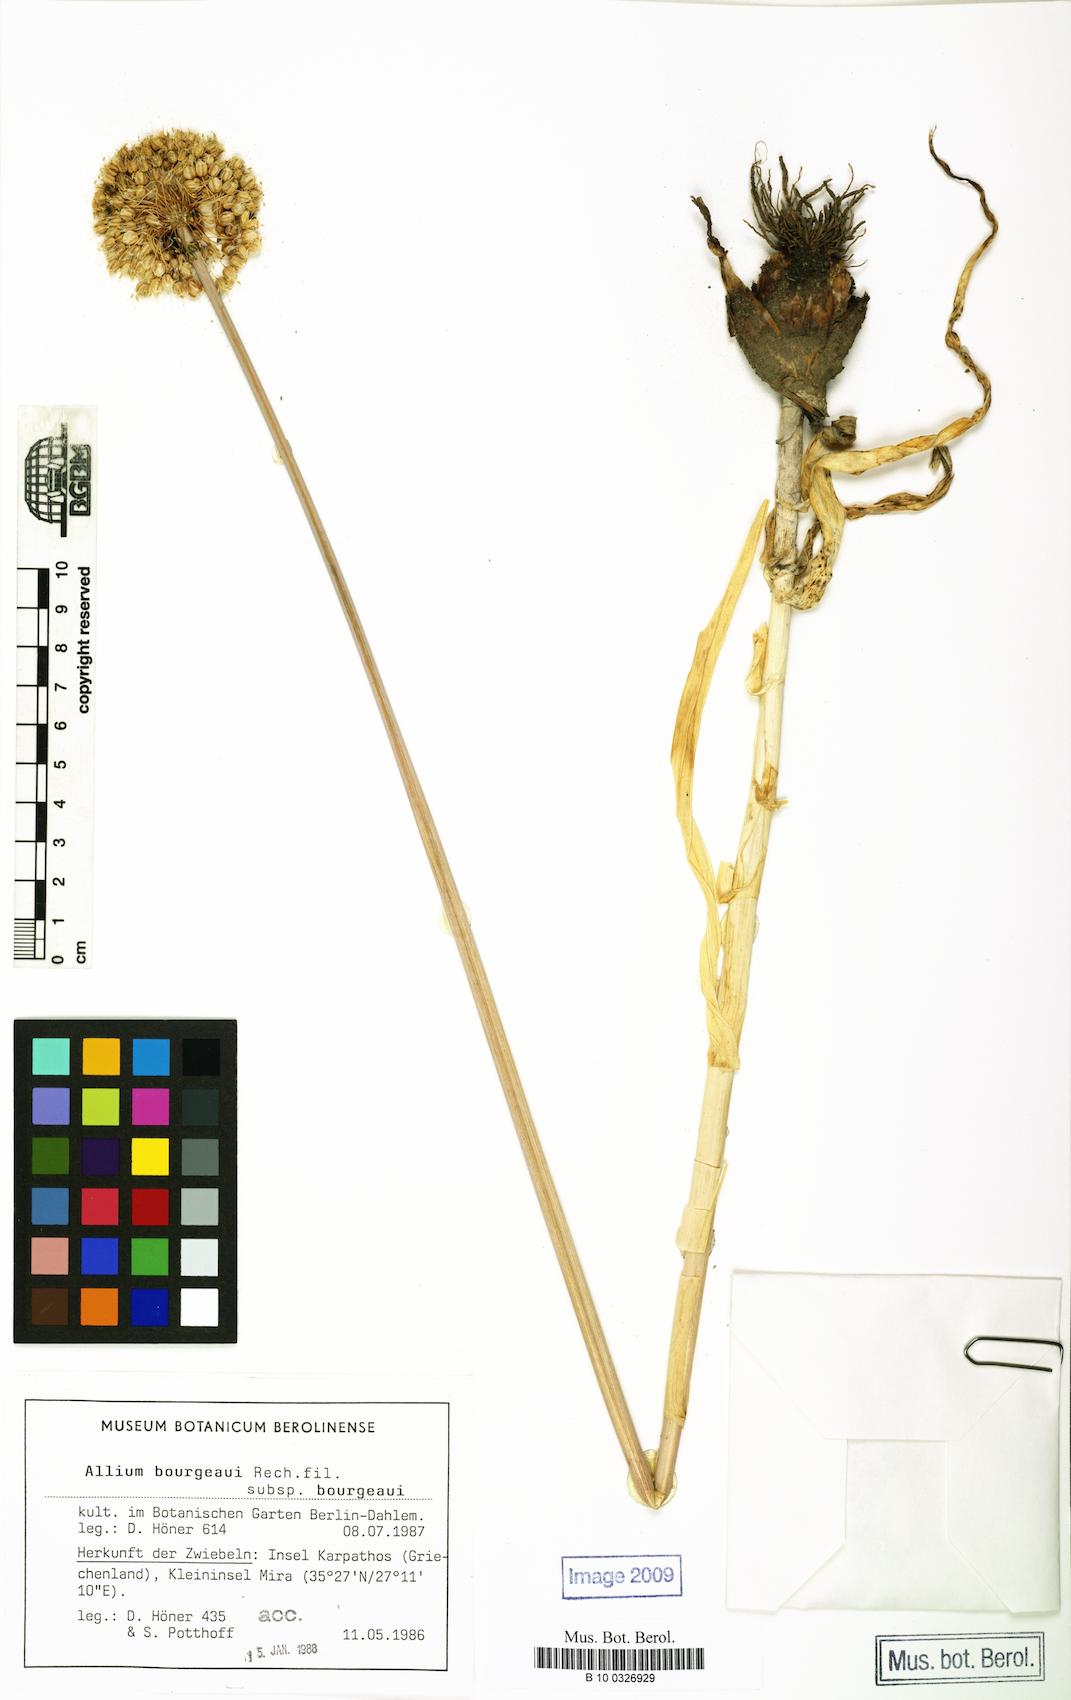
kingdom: Plantae
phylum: Tracheophyta
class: Liliopsida
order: Asparagales
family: Amaryllidaceae
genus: Allium
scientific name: Allium bourgeaui
